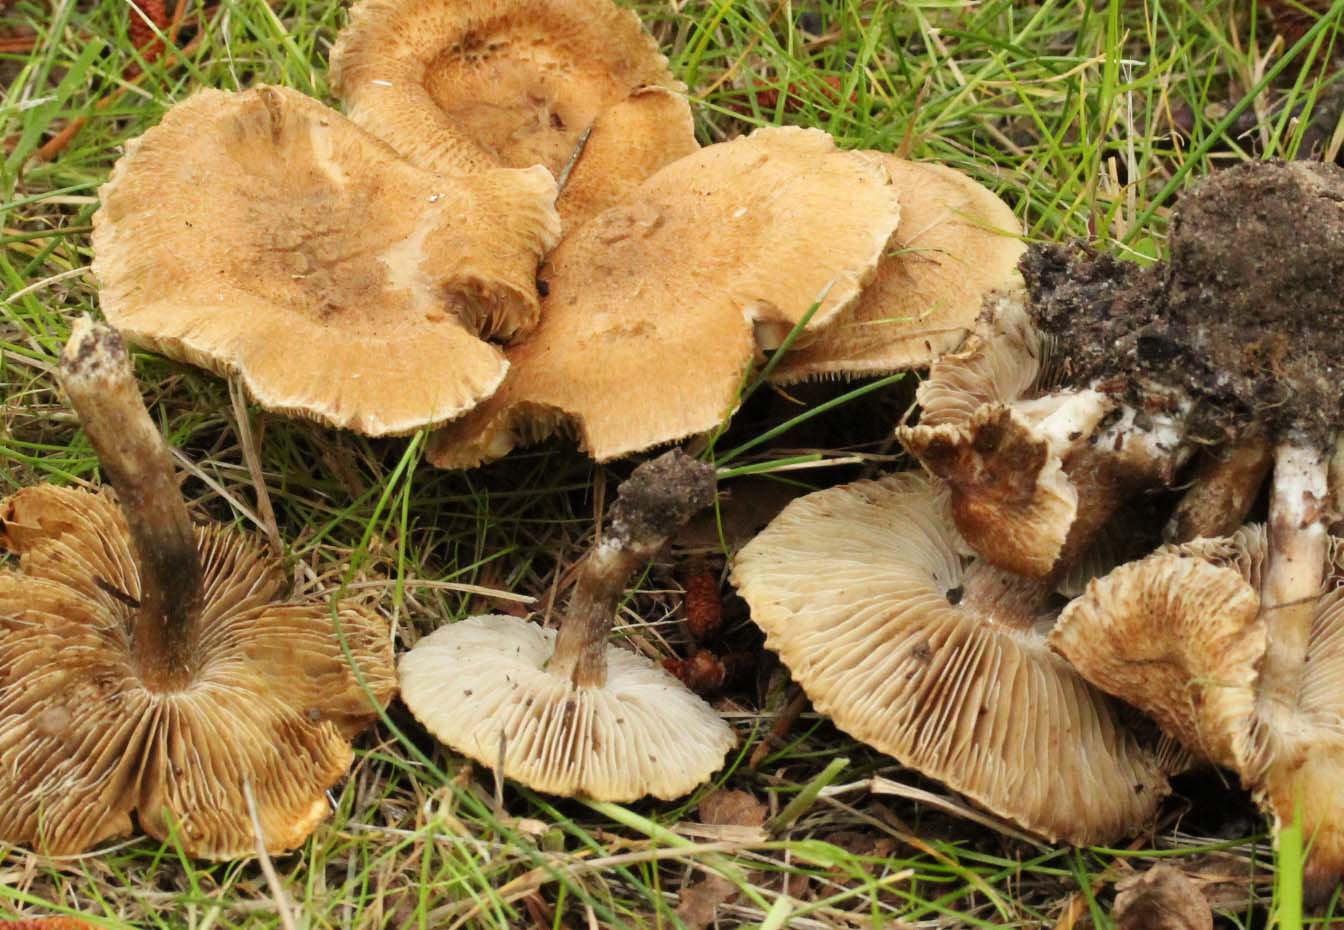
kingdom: Fungi
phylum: Basidiomycota
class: Agaricomycetes
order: Agaricales
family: Inocybaceae
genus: Inocybe
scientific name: Inocybe melanopoda
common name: sortfodet trævlhat
